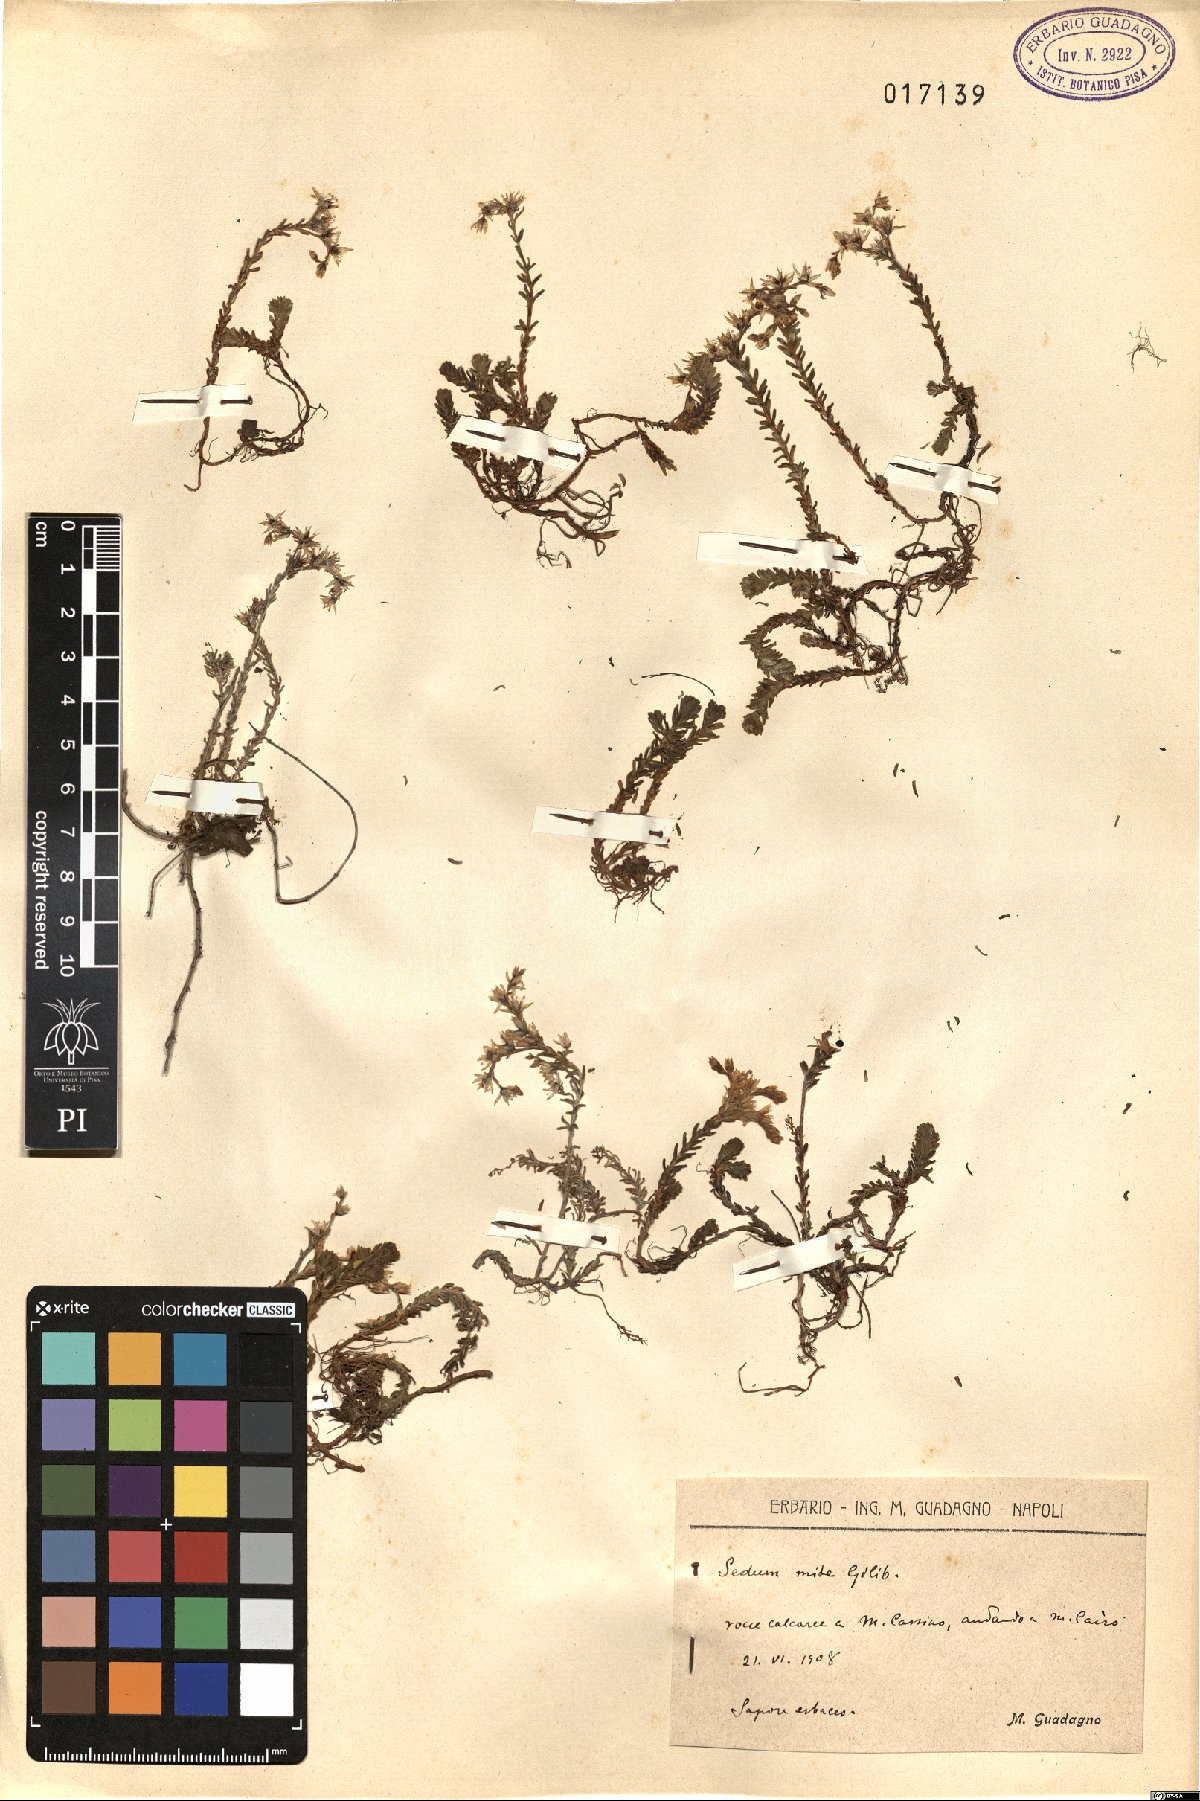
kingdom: Plantae
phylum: Tracheophyta
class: Magnoliopsida
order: Saxifragales
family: Crassulaceae
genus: Sedum
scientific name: Sedum sexangulare
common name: Tasteless stonecrop
